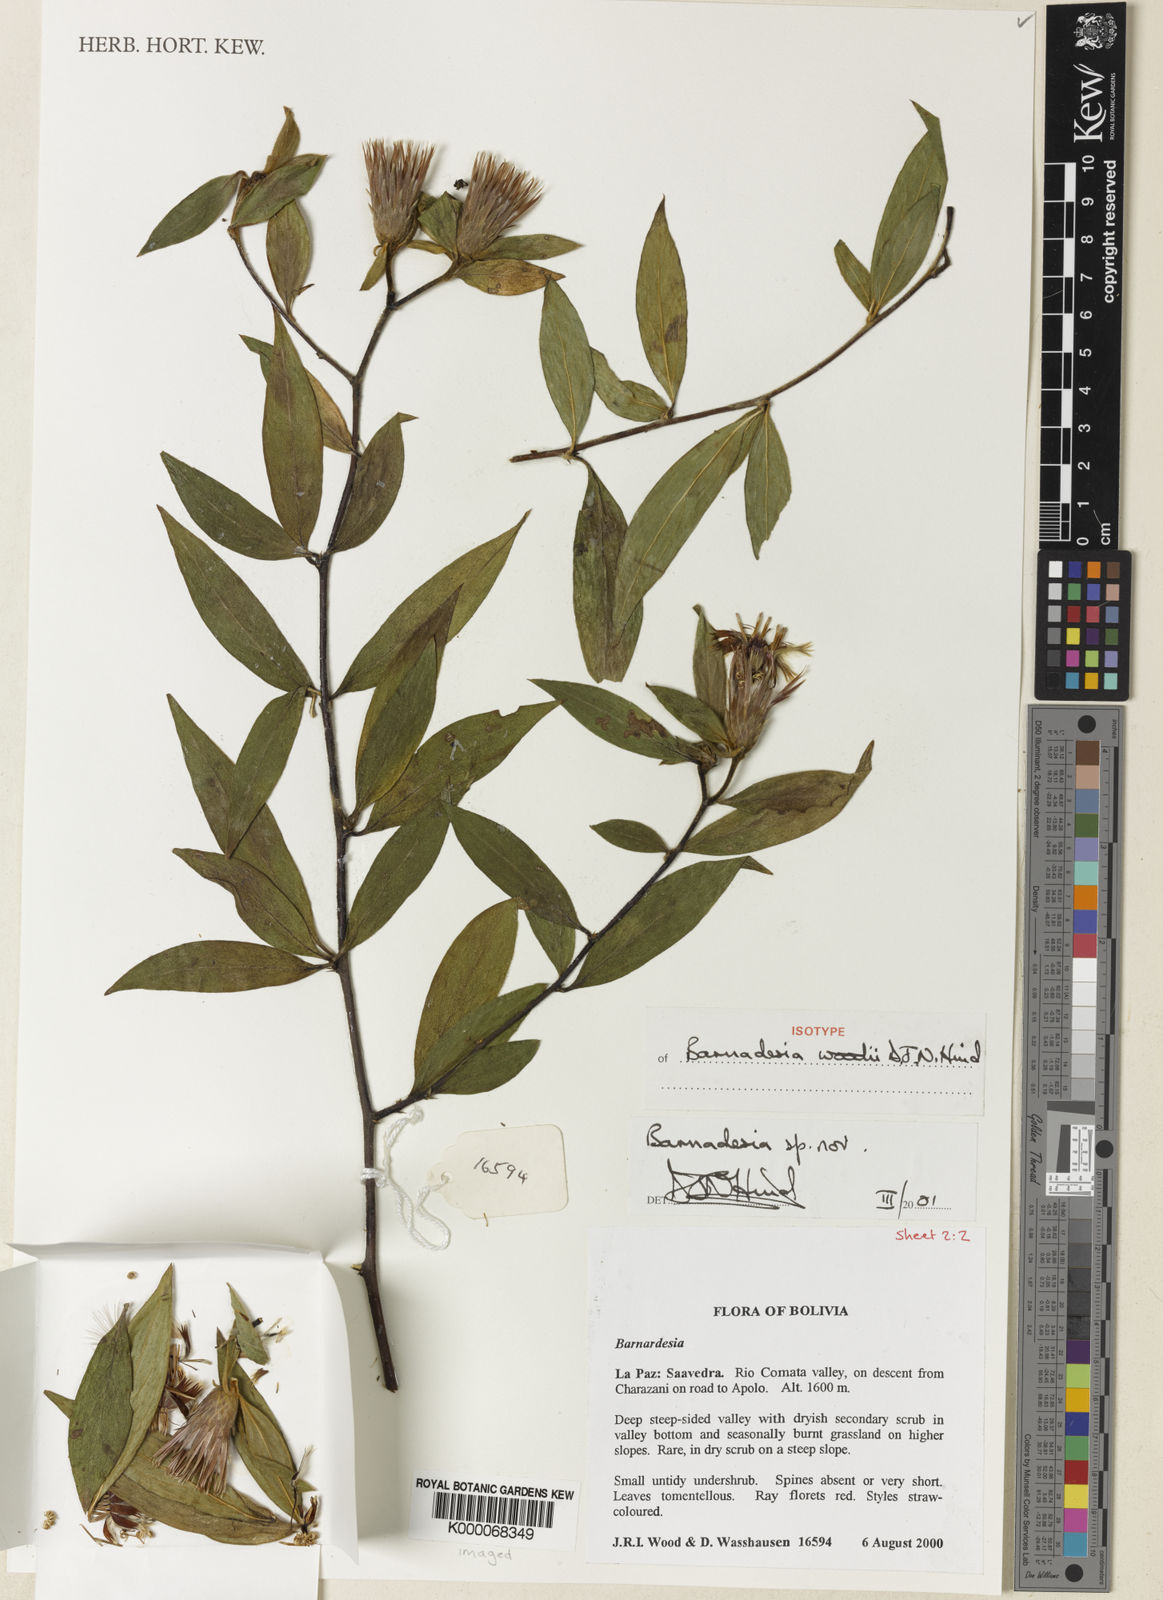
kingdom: Plantae
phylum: Tracheophyta
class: Magnoliopsida
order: Asterales
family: Asteraceae
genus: Barnadesia
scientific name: Barnadesia woodii
